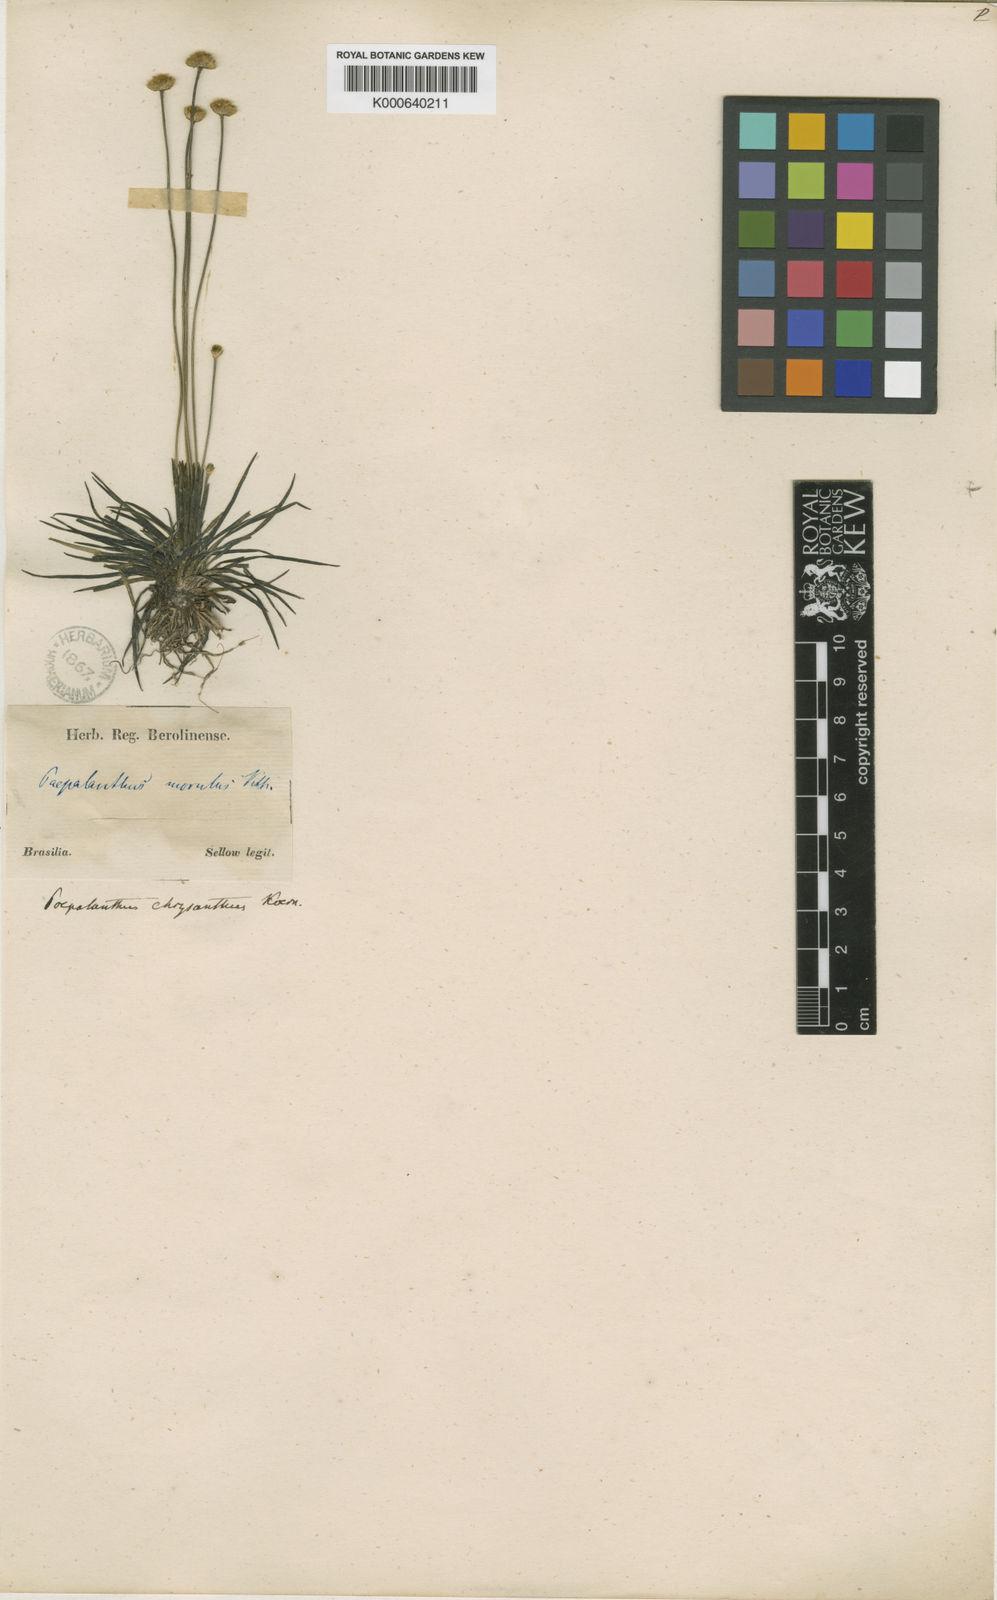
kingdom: Plantae
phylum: Tracheophyta
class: Liliopsida
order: Poales
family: Eriocaulaceae
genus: Syngonanthus
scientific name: Syngonanthus chrysanthus
